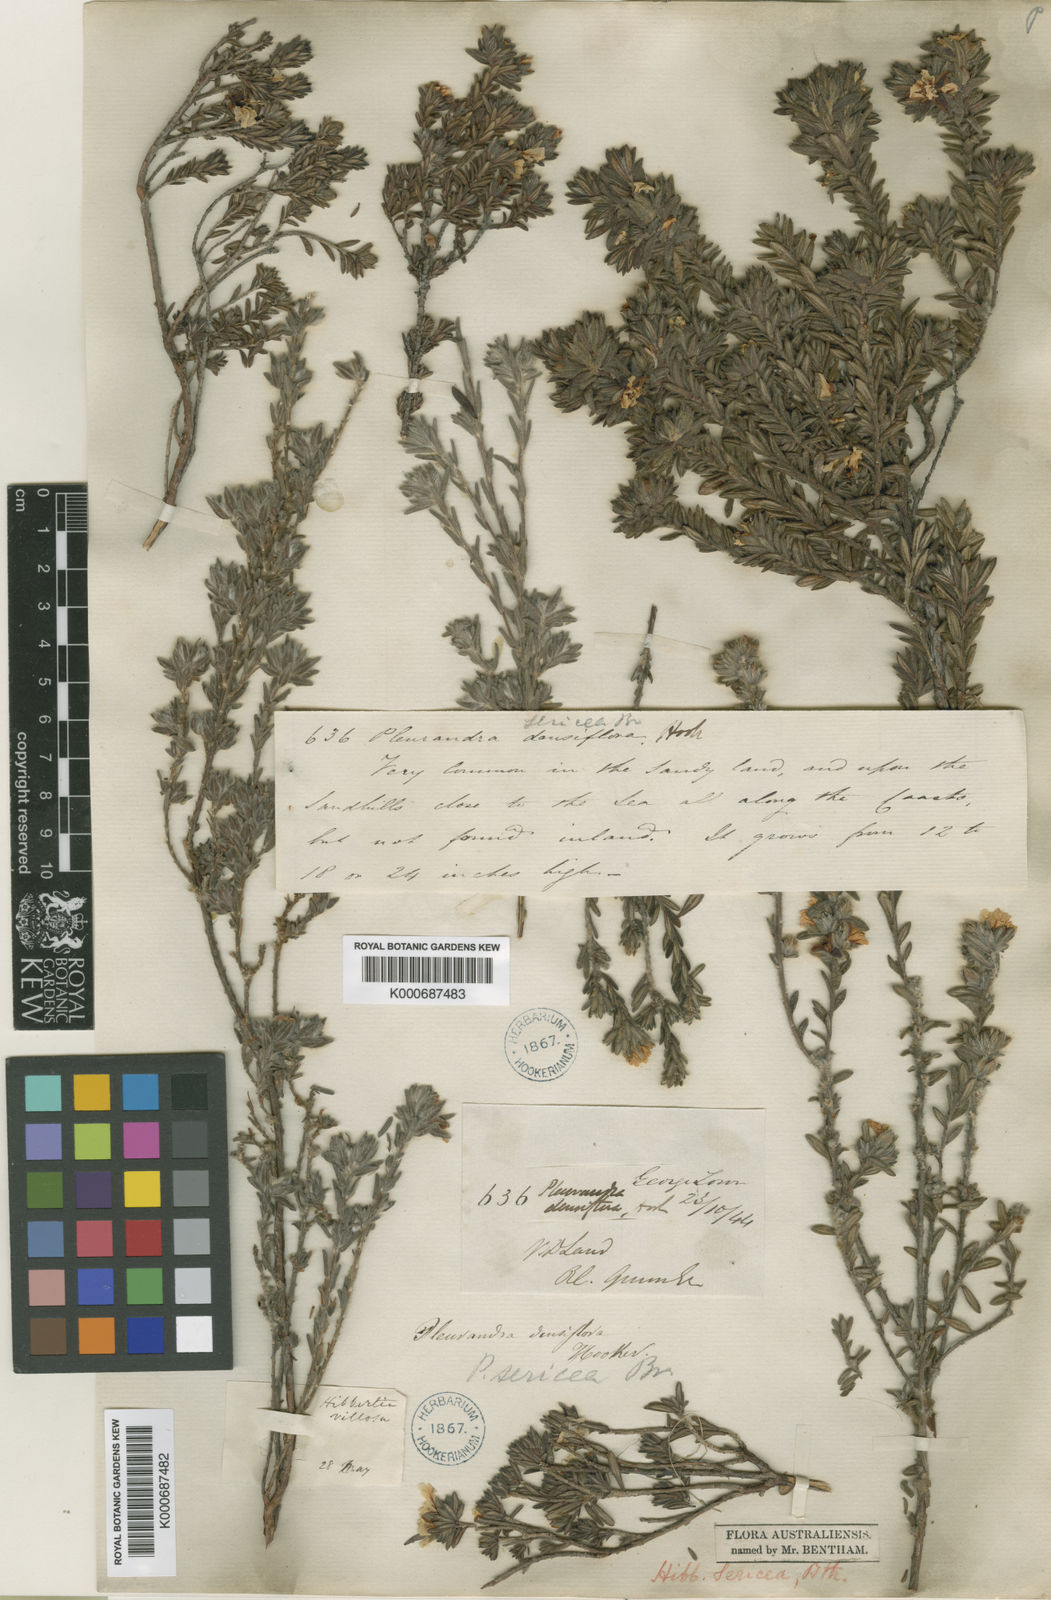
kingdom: Plantae
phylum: Tracheophyta
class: Magnoliopsida
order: Dilleniales
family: Dilleniaceae
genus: Hibbertia
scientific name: Hibbertia sericea
